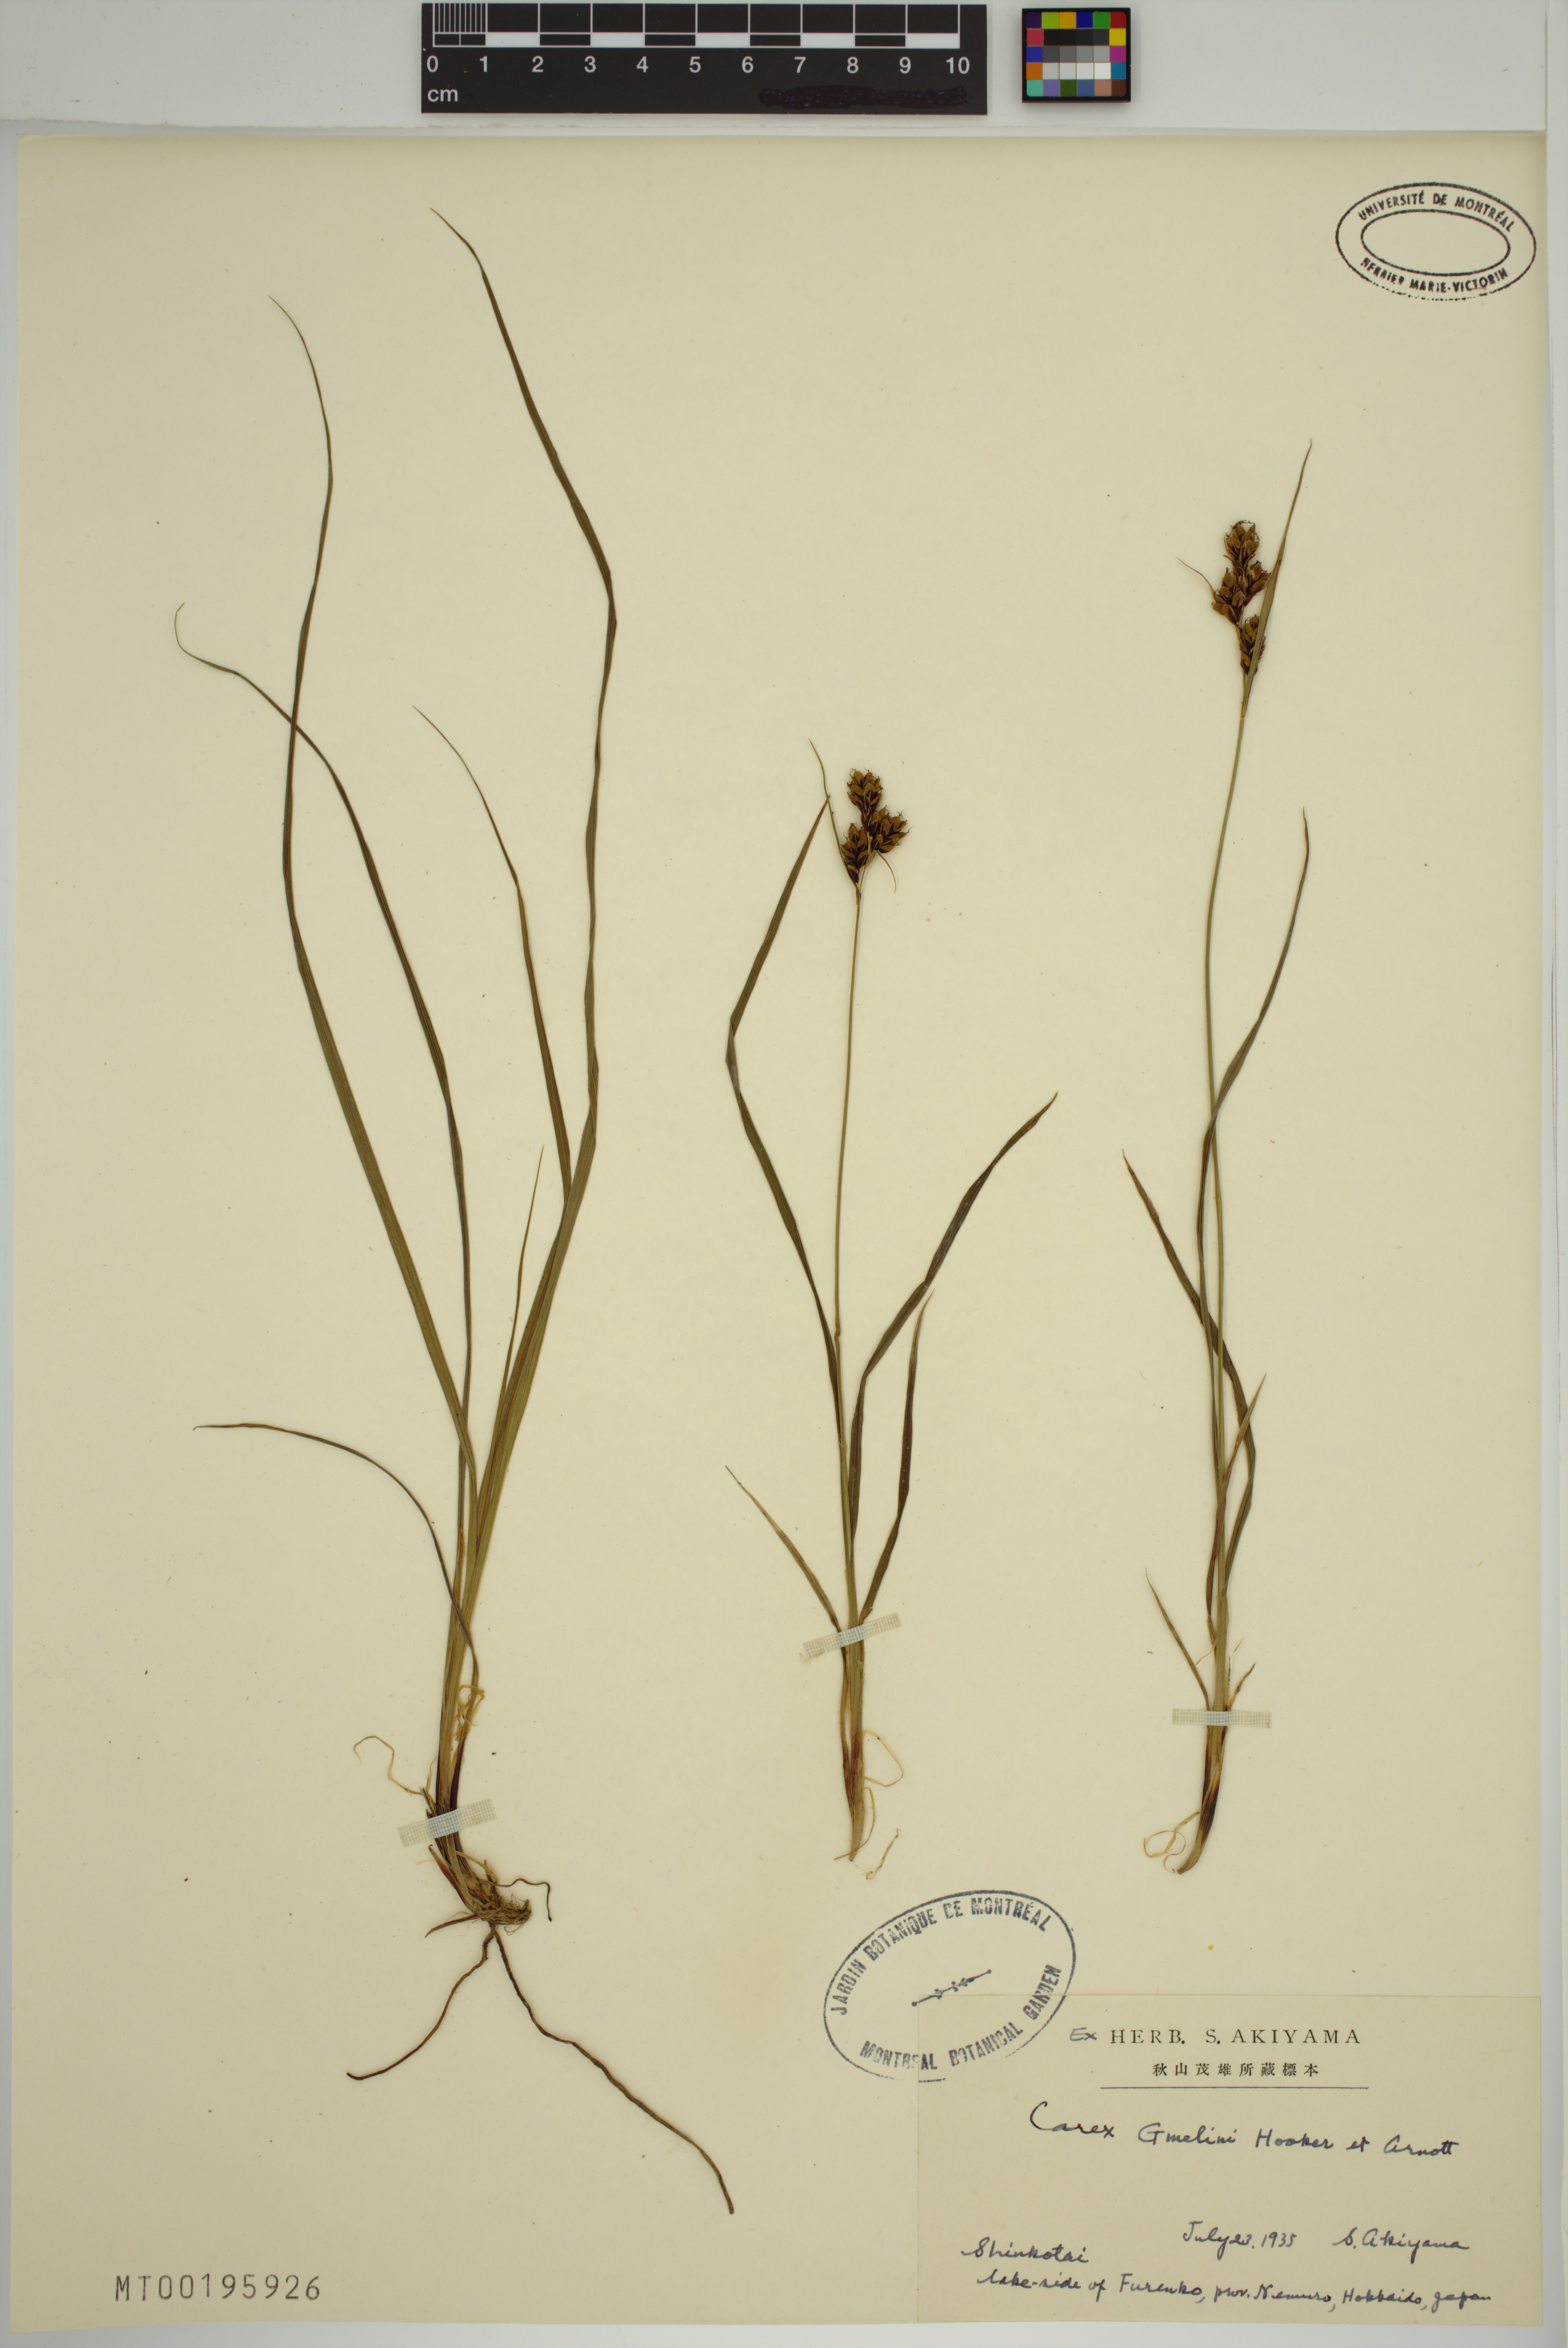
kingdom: Plantae
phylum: Tracheophyta
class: Liliopsida
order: Poales
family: Cyperaceae
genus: Carex
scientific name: Carex gmelinii
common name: Gmelin's sedge
